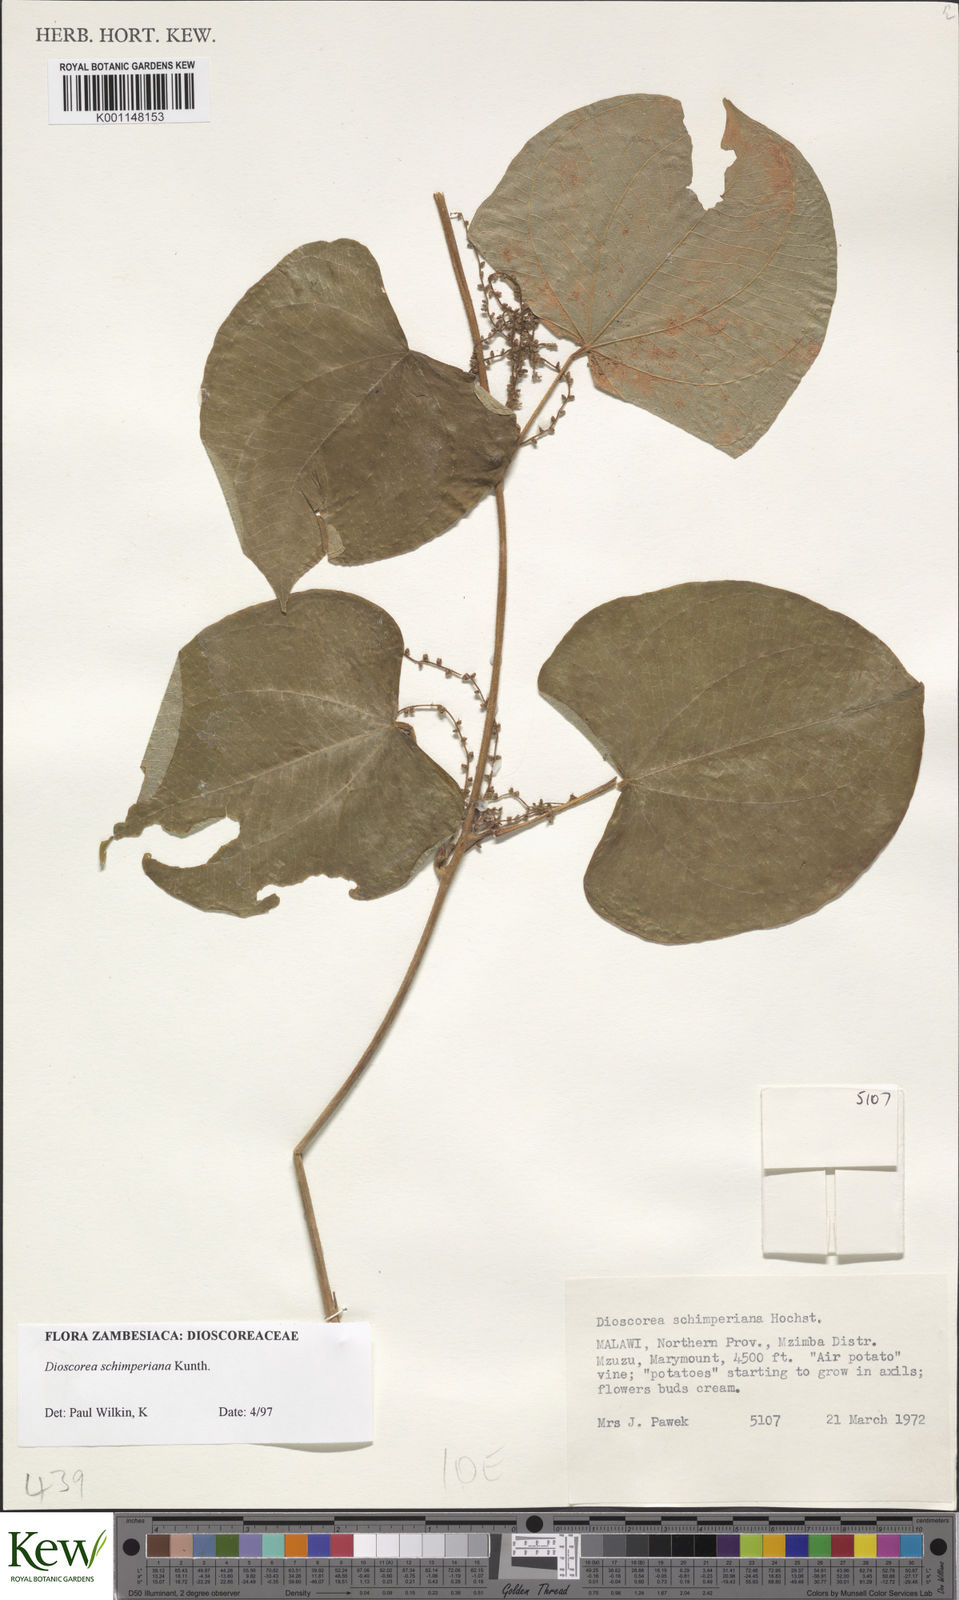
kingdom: Plantae
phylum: Tracheophyta
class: Liliopsida
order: Dioscoreales
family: Dioscoreaceae
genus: Dioscorea
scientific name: Dioscorea schimperiana
